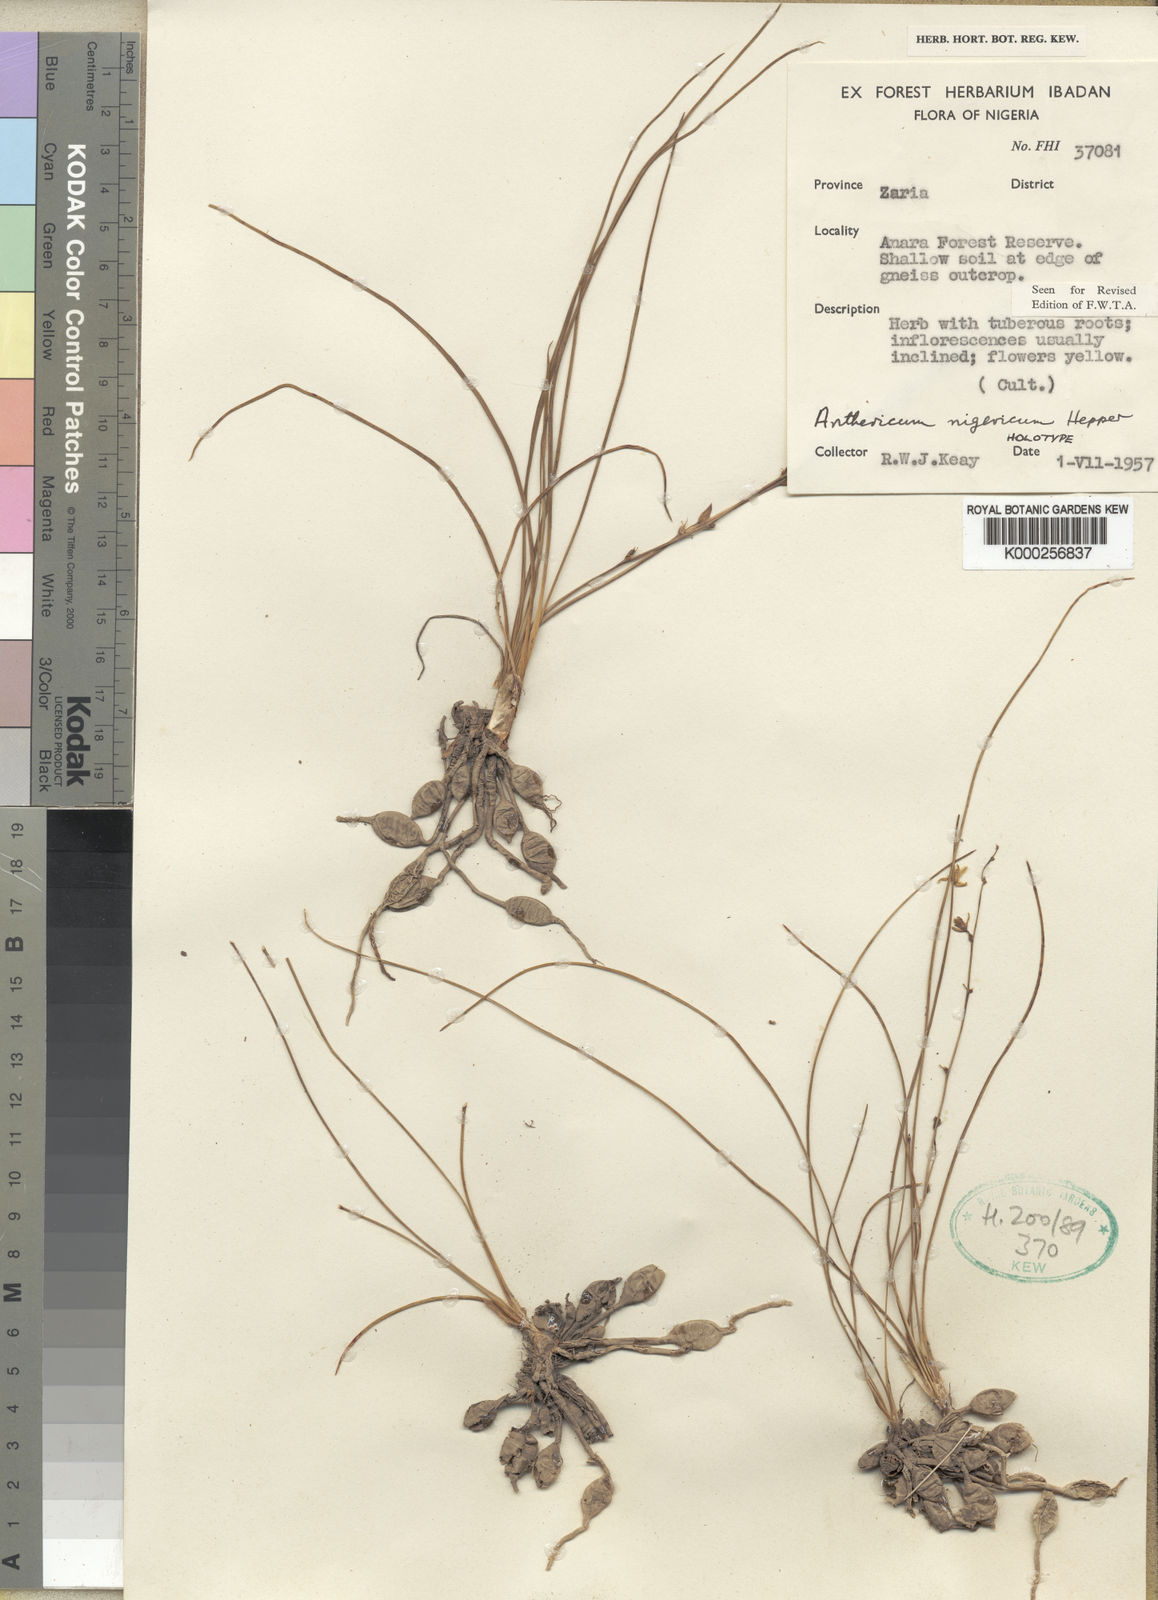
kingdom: Plantae
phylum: Tracheophyta
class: Liliopsida
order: Asparagales
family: Asparagaceae
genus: Chlorophytum
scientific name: Chlorophytum angustissimum
